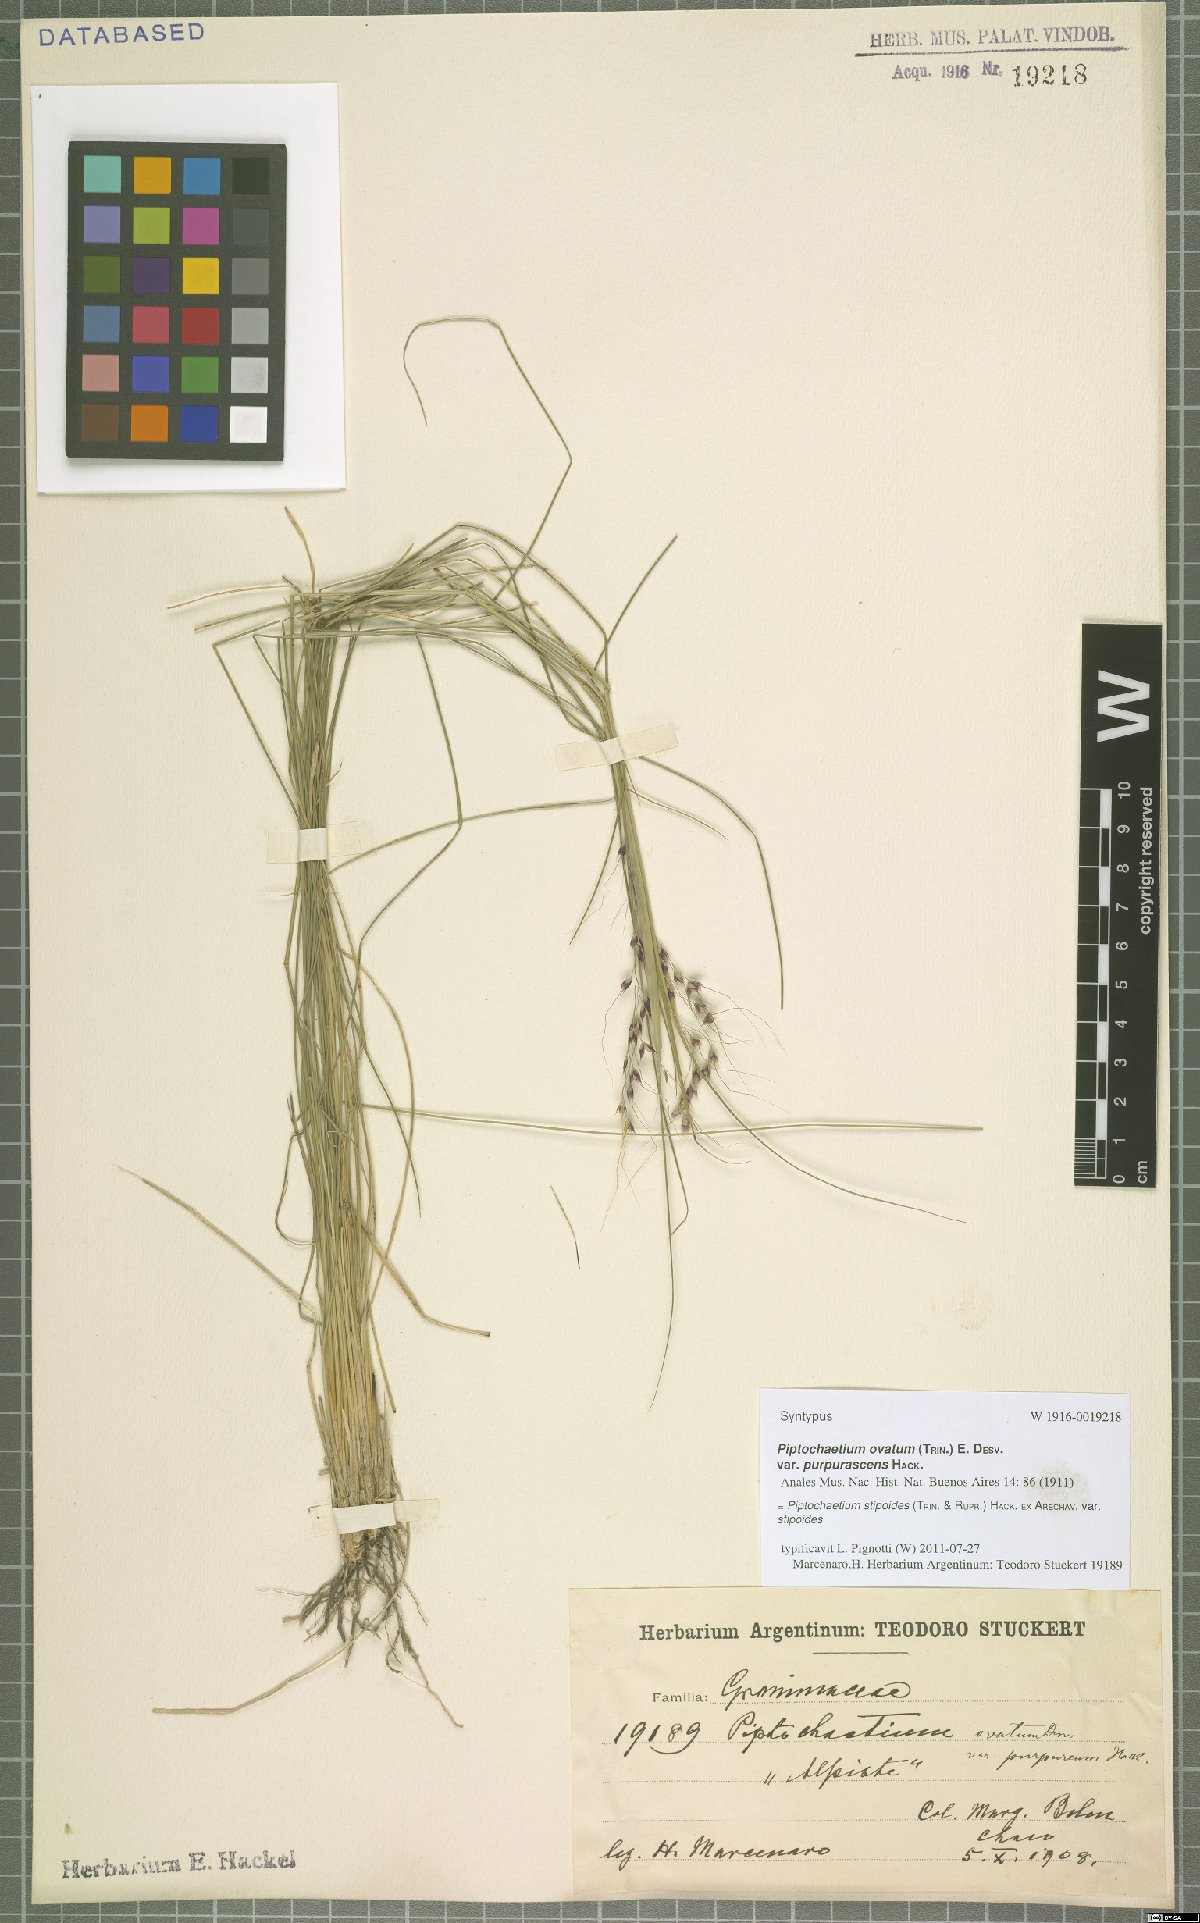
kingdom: Plantae
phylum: Tracheophyta
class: Liliopsida
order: Poales
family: Poaceae
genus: Piptochaetium
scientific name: Piptochaetium stipoides
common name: Purple speargrass
